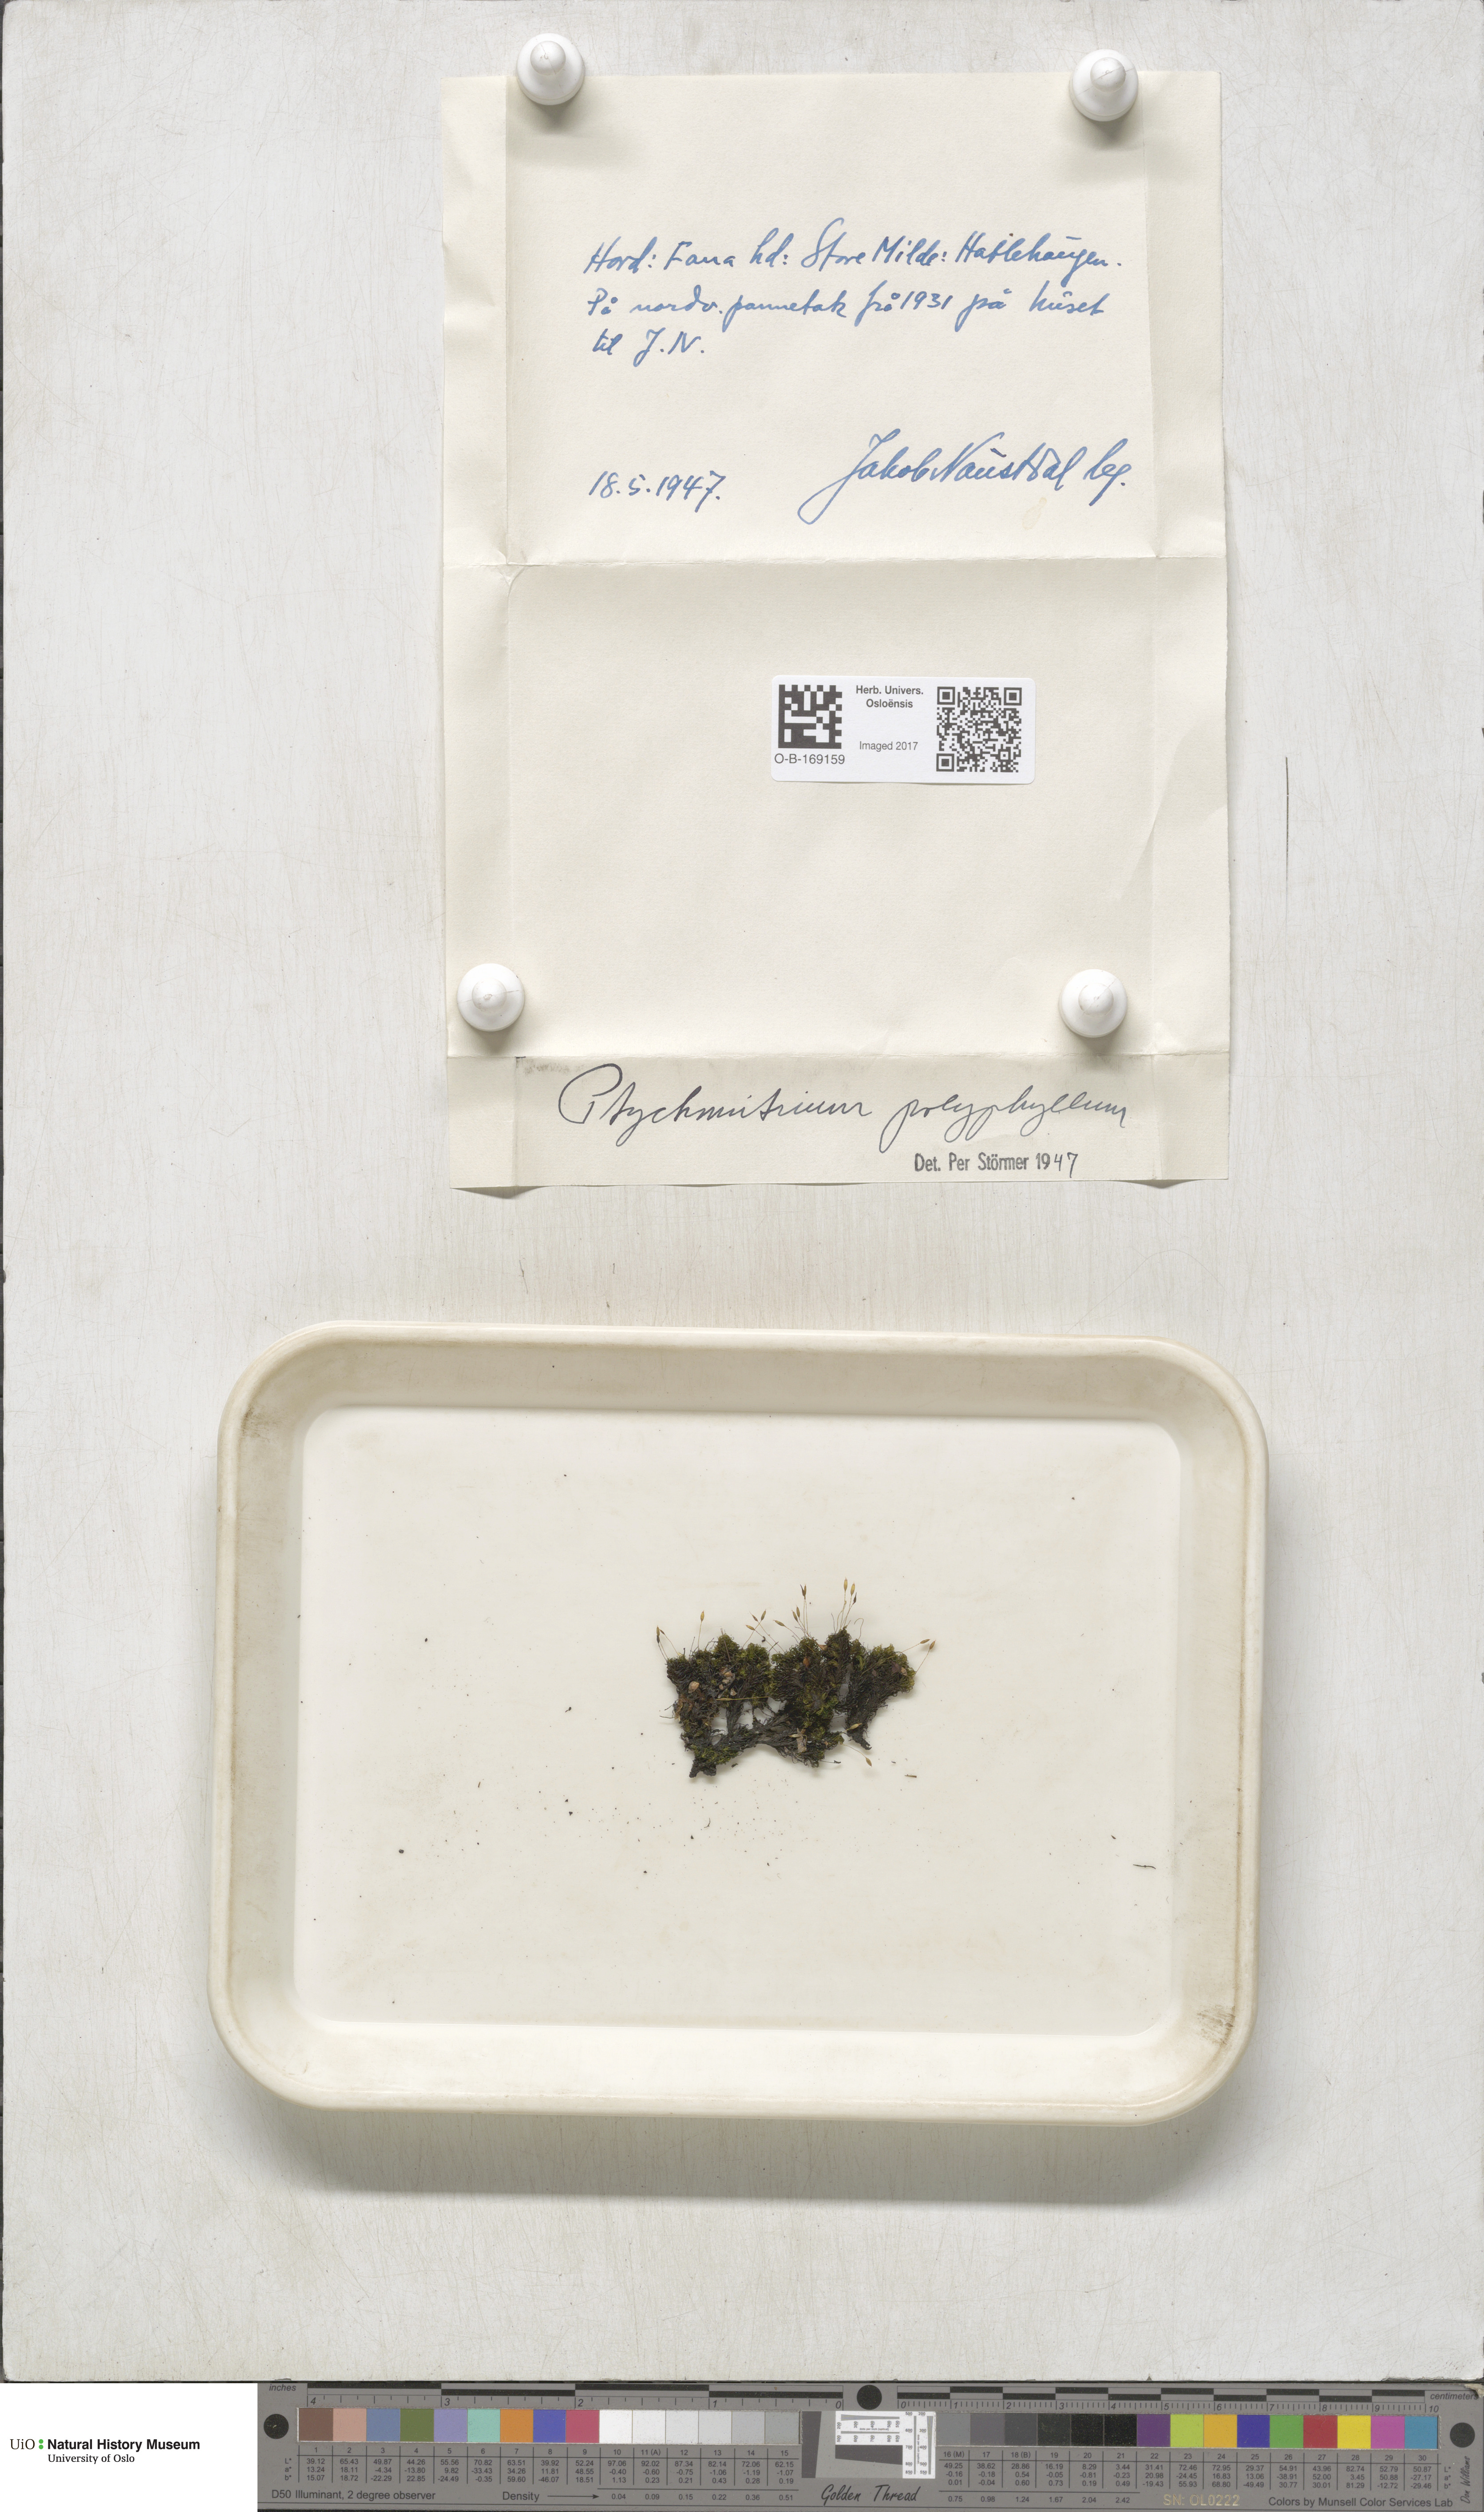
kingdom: Plantae
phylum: Bryophyta
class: Bryopsida
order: Grimmiales
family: Ptychomitriaceae
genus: Ptychomitrium
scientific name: Ptychomitrium polyphyllum
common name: Greater pincushion
